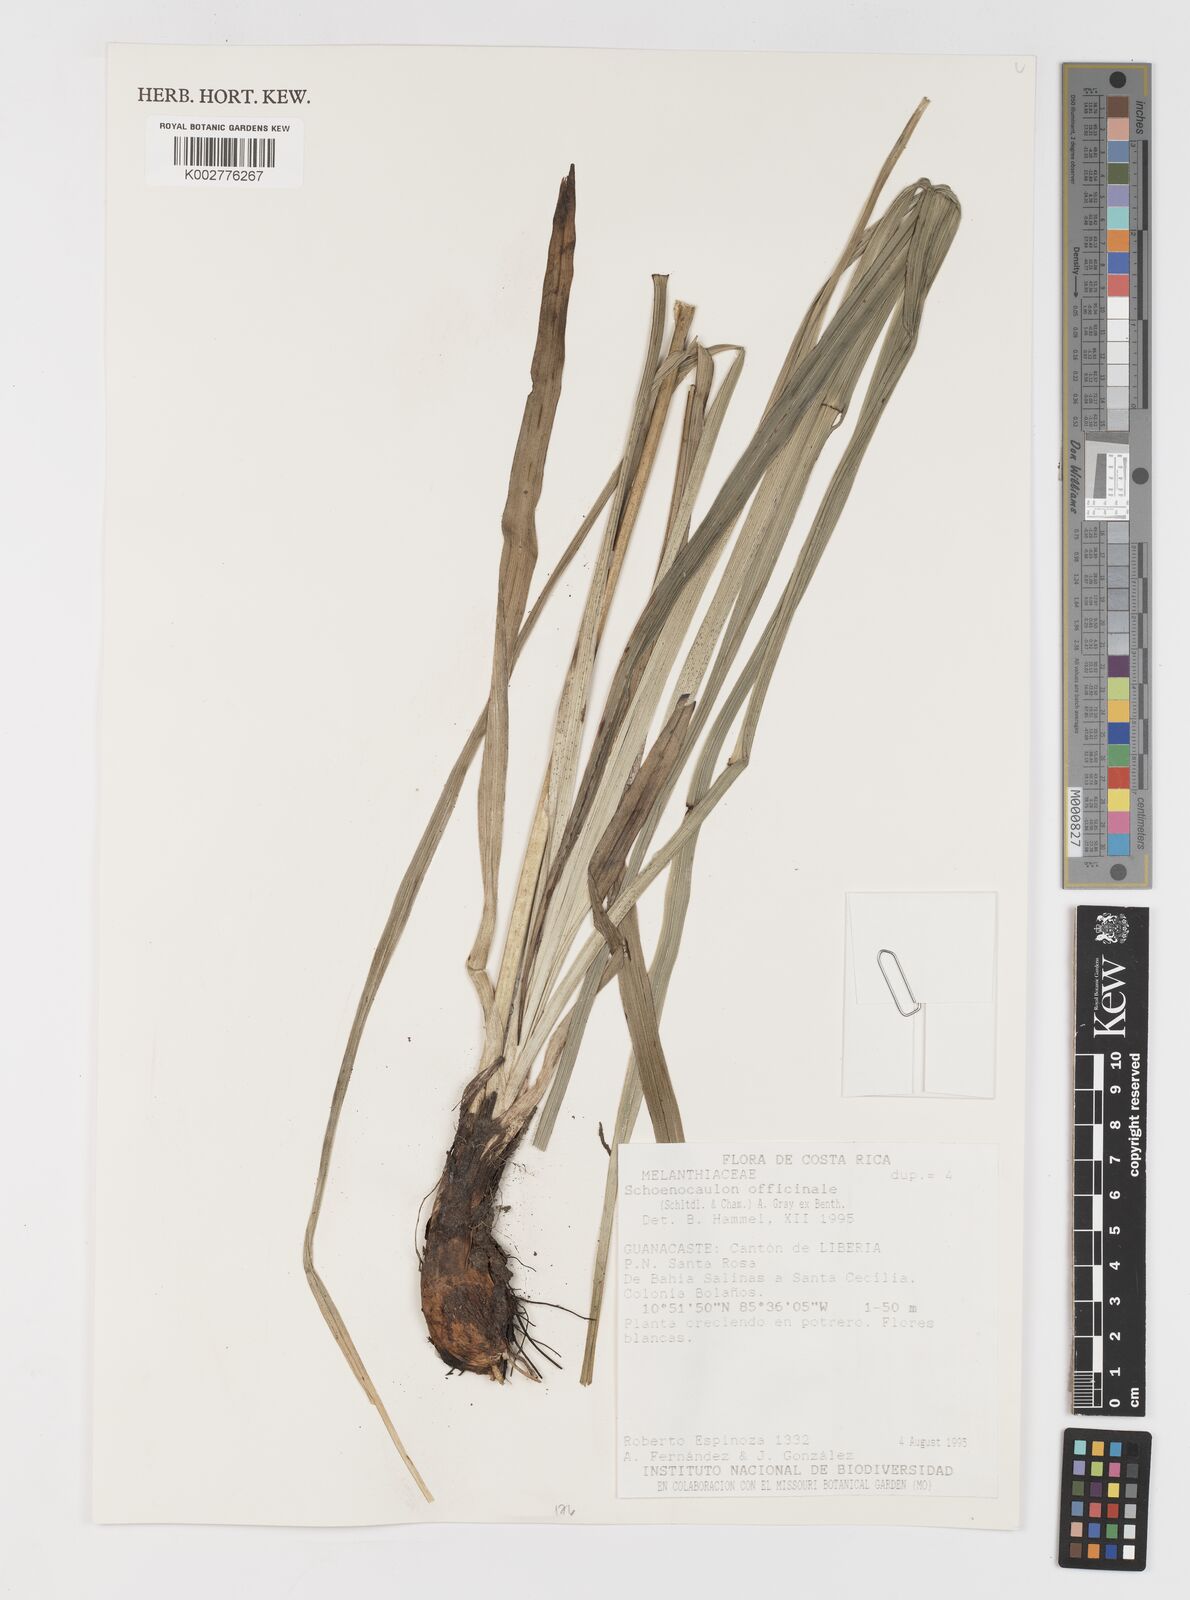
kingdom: Plantae
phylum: Tracheophyta
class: Liliopsida
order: Liliales
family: Melanthiaceae
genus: Schoenocaulon
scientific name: Schoenocaulon officinale
